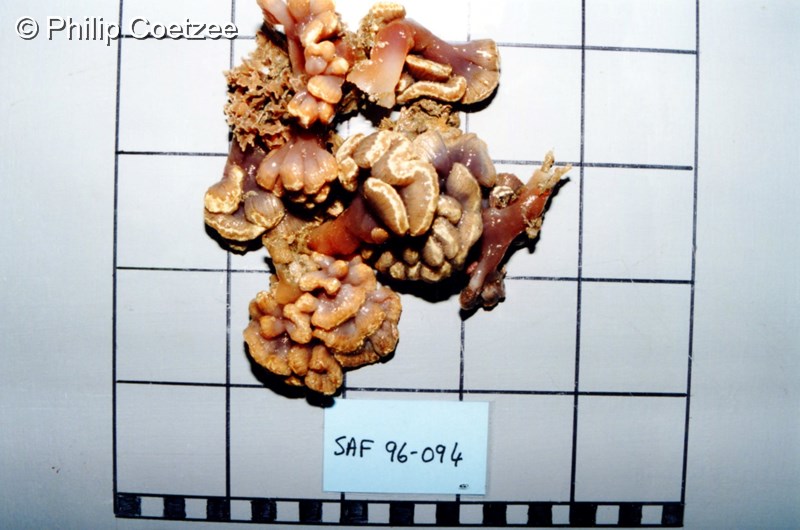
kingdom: Animalia
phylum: Chordata
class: Ascidiacea
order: Aplousobranchia
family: Holozoidae
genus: Sycozoa
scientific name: Sycozoa arborescens
